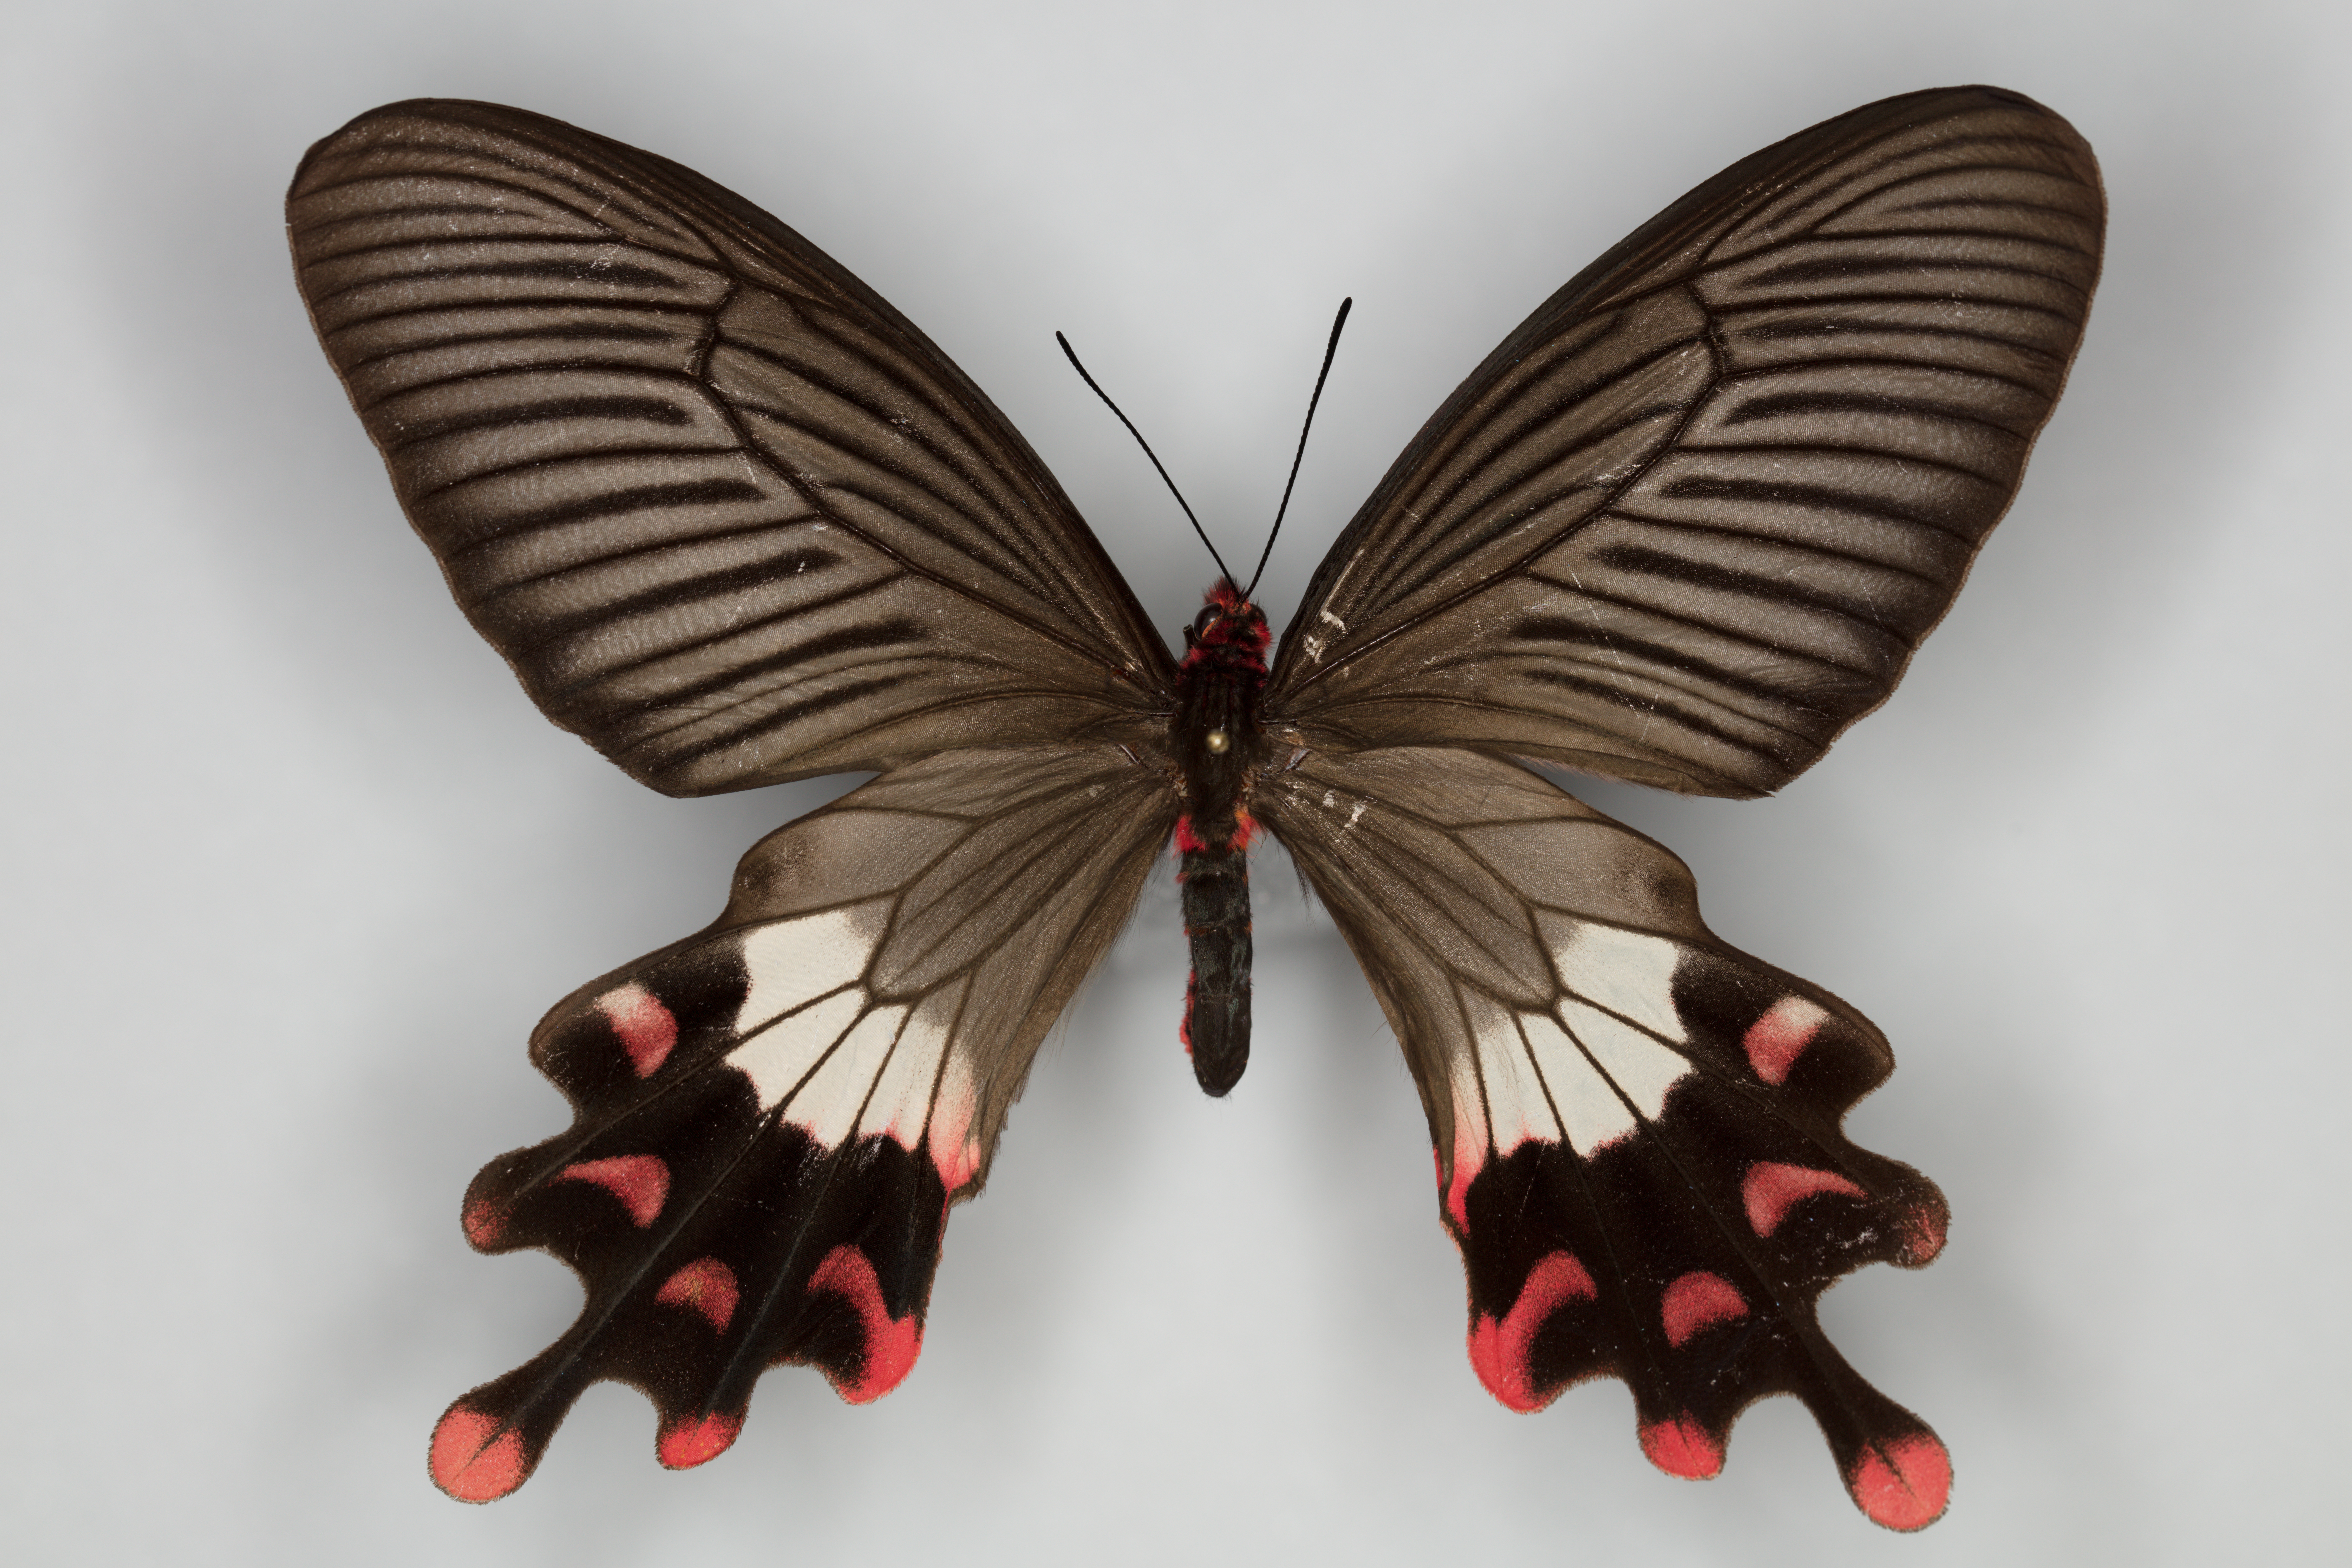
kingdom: Animalia
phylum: Arthropoda
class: Insecta
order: Lepidoptera
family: Papilionidae
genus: Byasa
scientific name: Byasa latreillei
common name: Rose windmill
